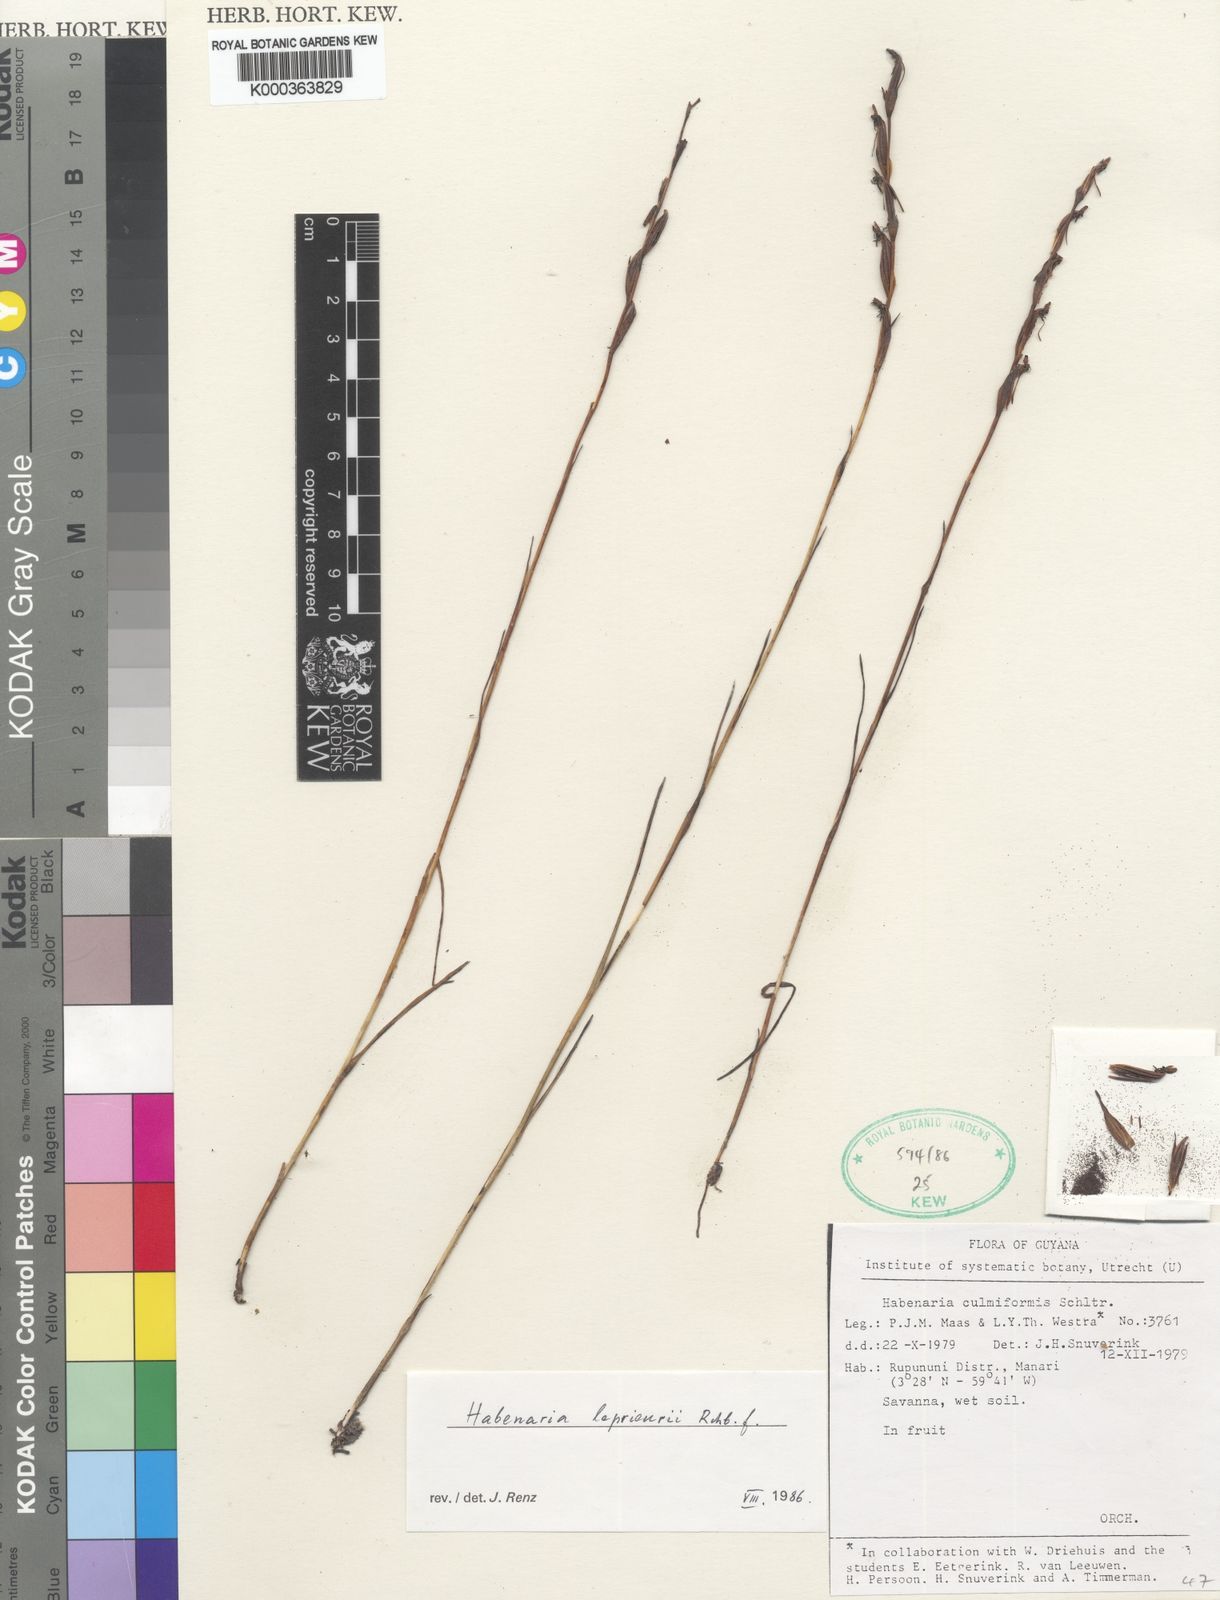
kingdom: Plantae
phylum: Tracheophyta
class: Liliopsida
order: Asparagales
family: Orchidaceae
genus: Habenaria
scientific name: Habenaria leprieurii
